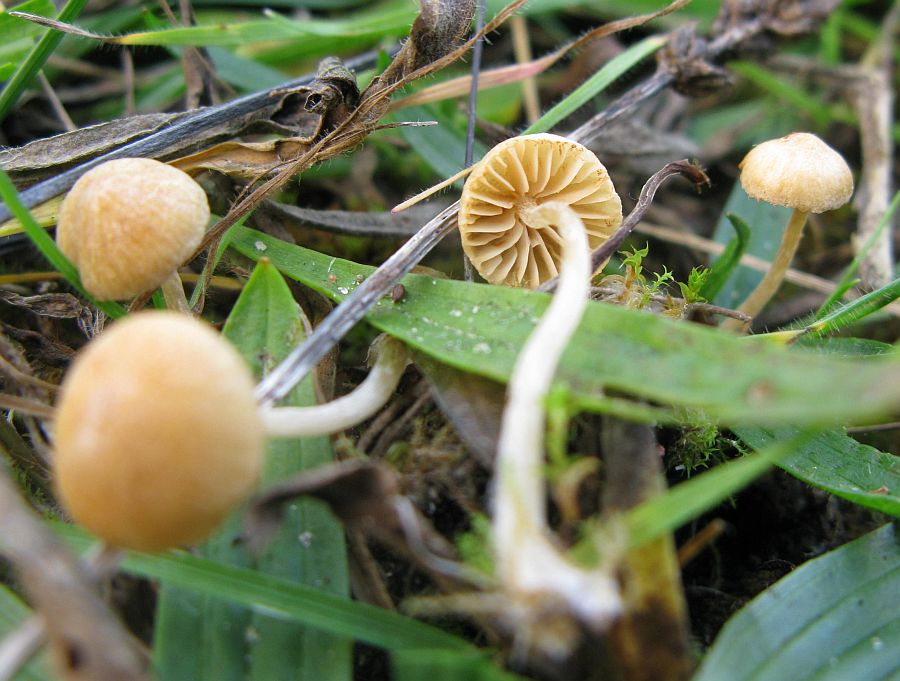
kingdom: Fungi
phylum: Basidiomycota
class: Agaricomycetes
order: Agaricales
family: Hymenogastraceae
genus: Galerina
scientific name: Galerina graminea
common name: plæne-hjelmhat
